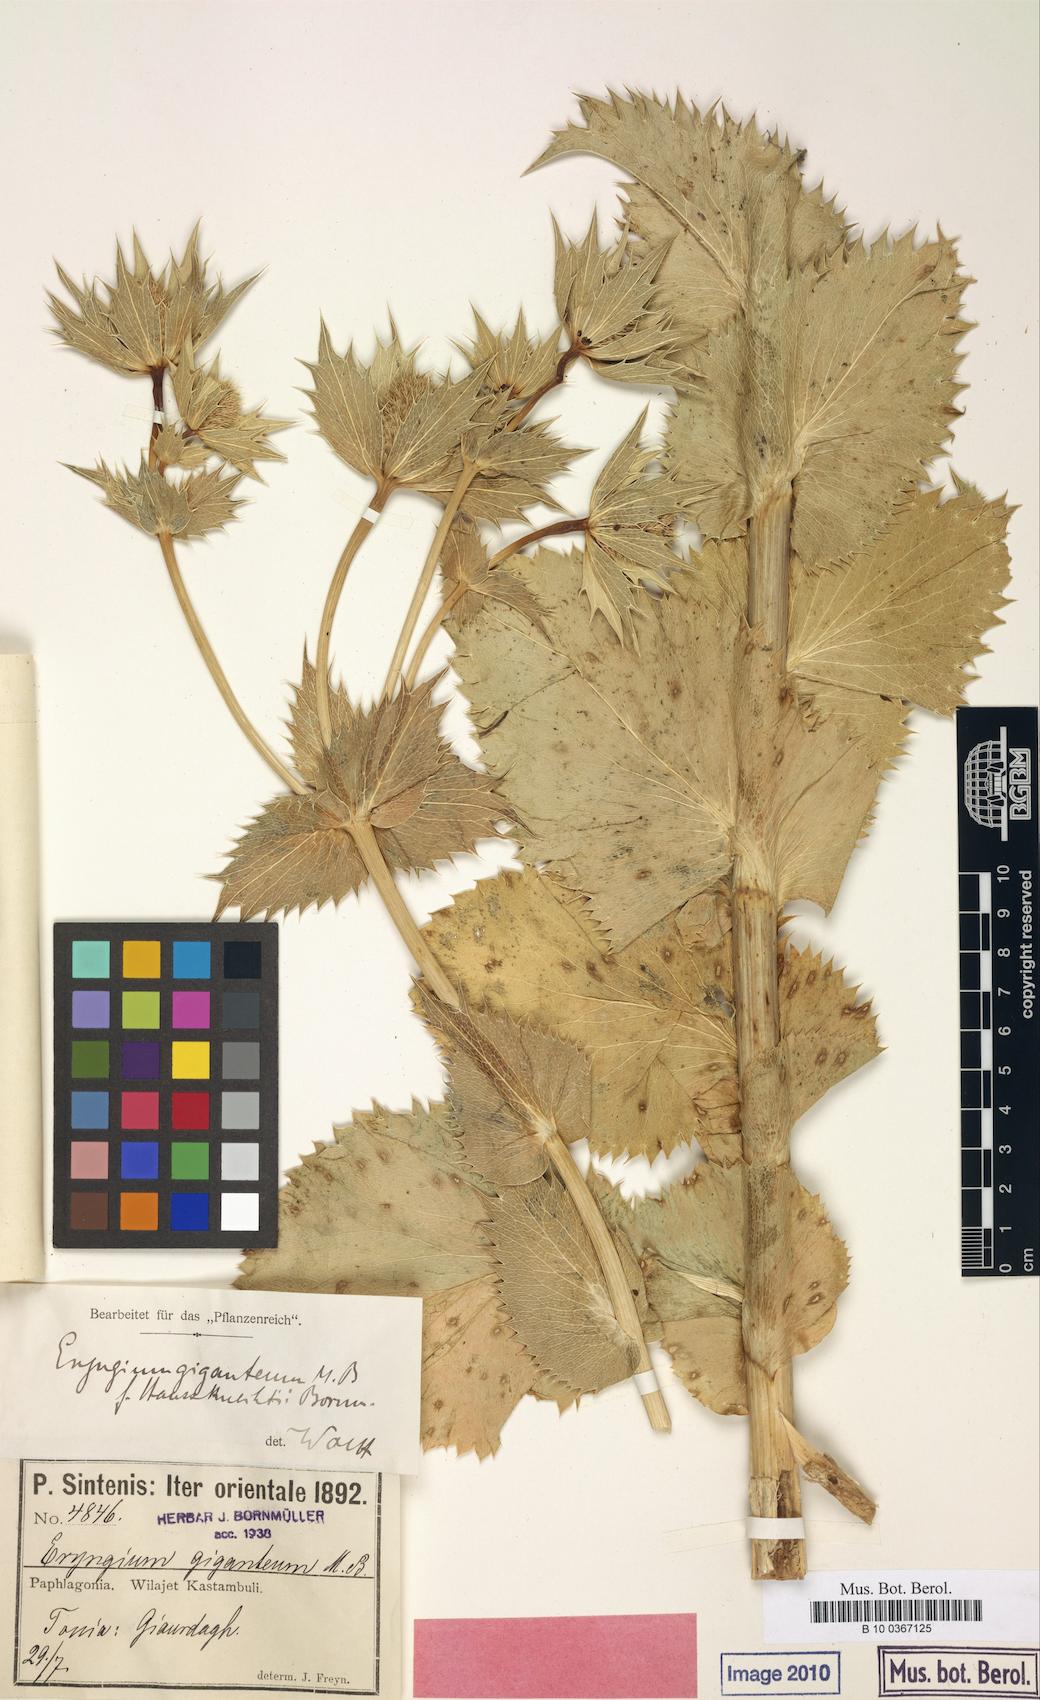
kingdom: Plantae
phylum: Tracheophyta
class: Magnoliopsida
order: Apiales
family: Apiaceae
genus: Eryngium
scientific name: Eryngium giganteum
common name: Tall eryngo
